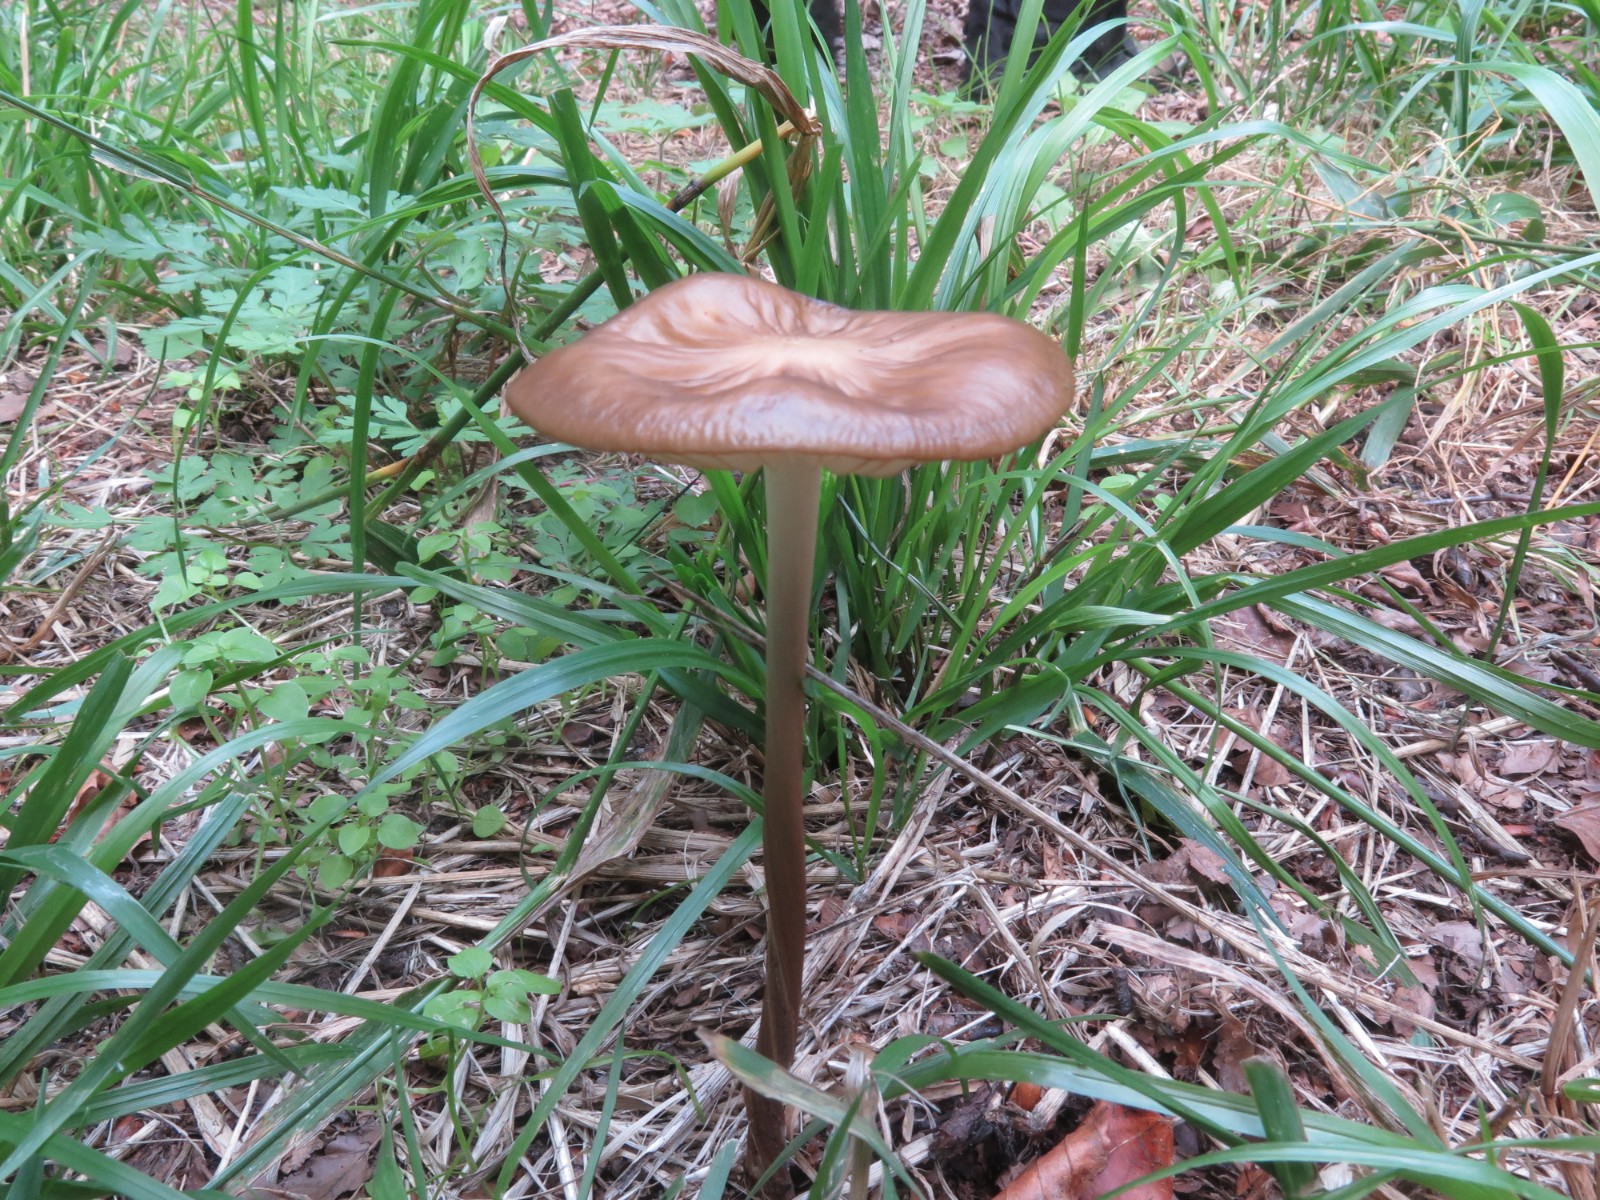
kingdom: Fungi
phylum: Basidiomycota
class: Agaricomycetes
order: Agaricales
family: Physalacriaceae
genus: Hymenopellis
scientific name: Hymenopellis radicata
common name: almindelig pælerodshat
